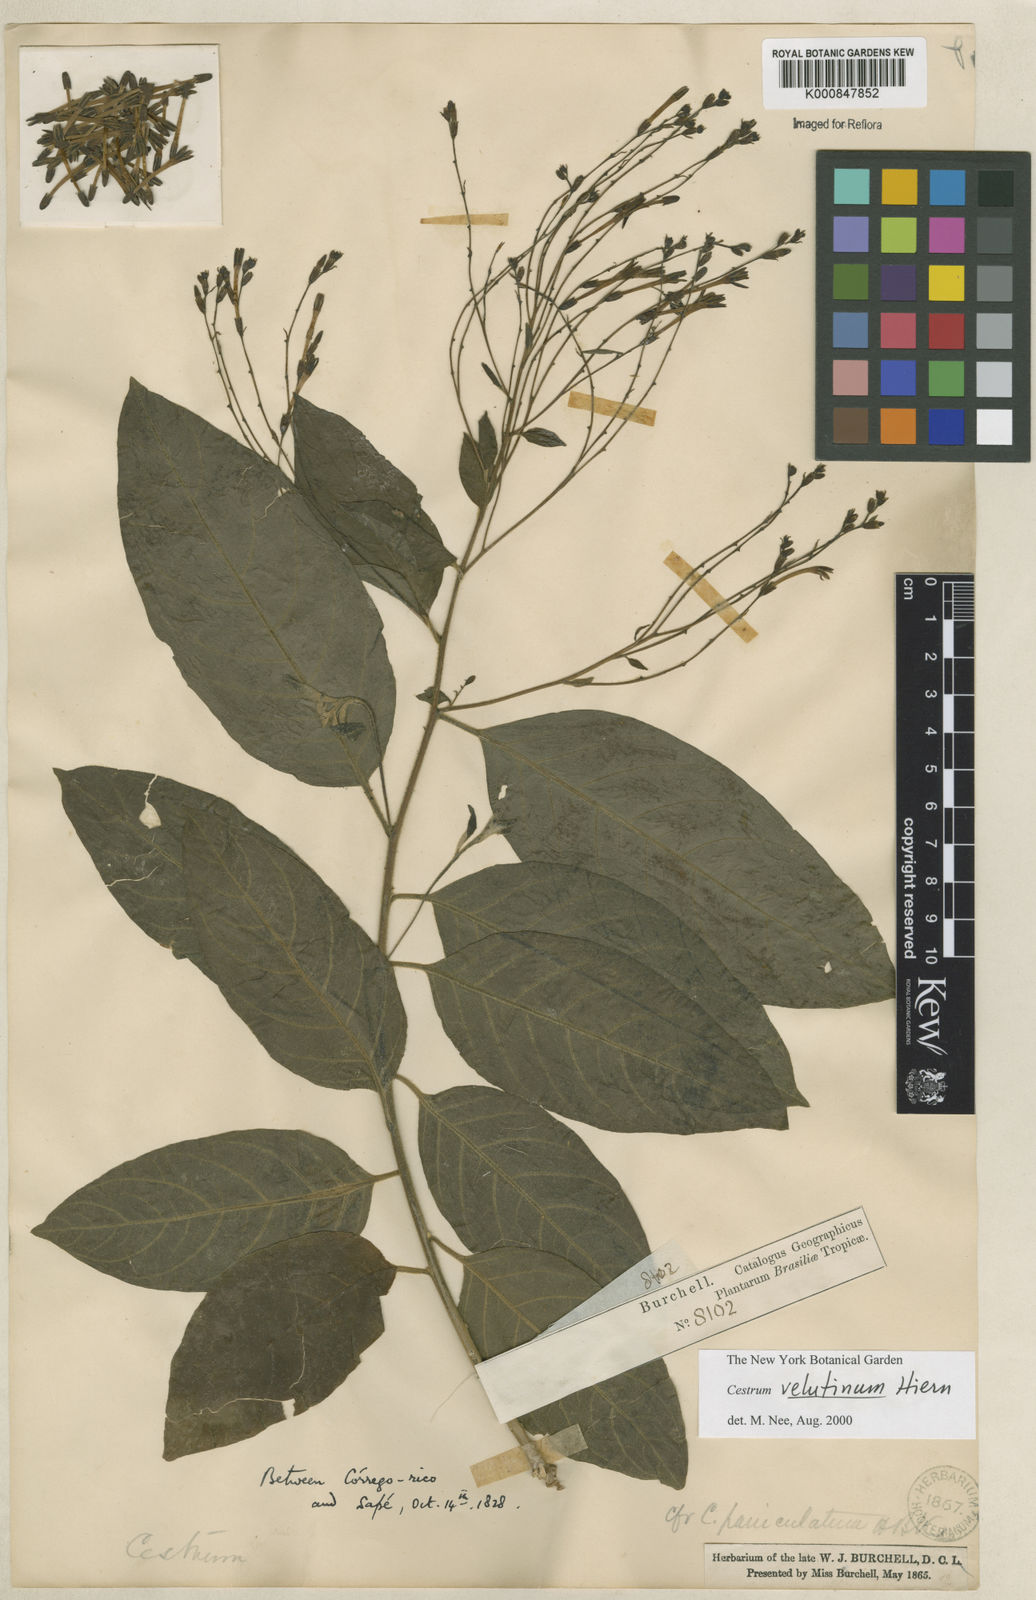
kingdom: Plantae
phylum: Tracheophyta
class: Magnoliopsida
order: Solanales
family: Solanaceae
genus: Cestrum
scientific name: Cestrum velutinum
